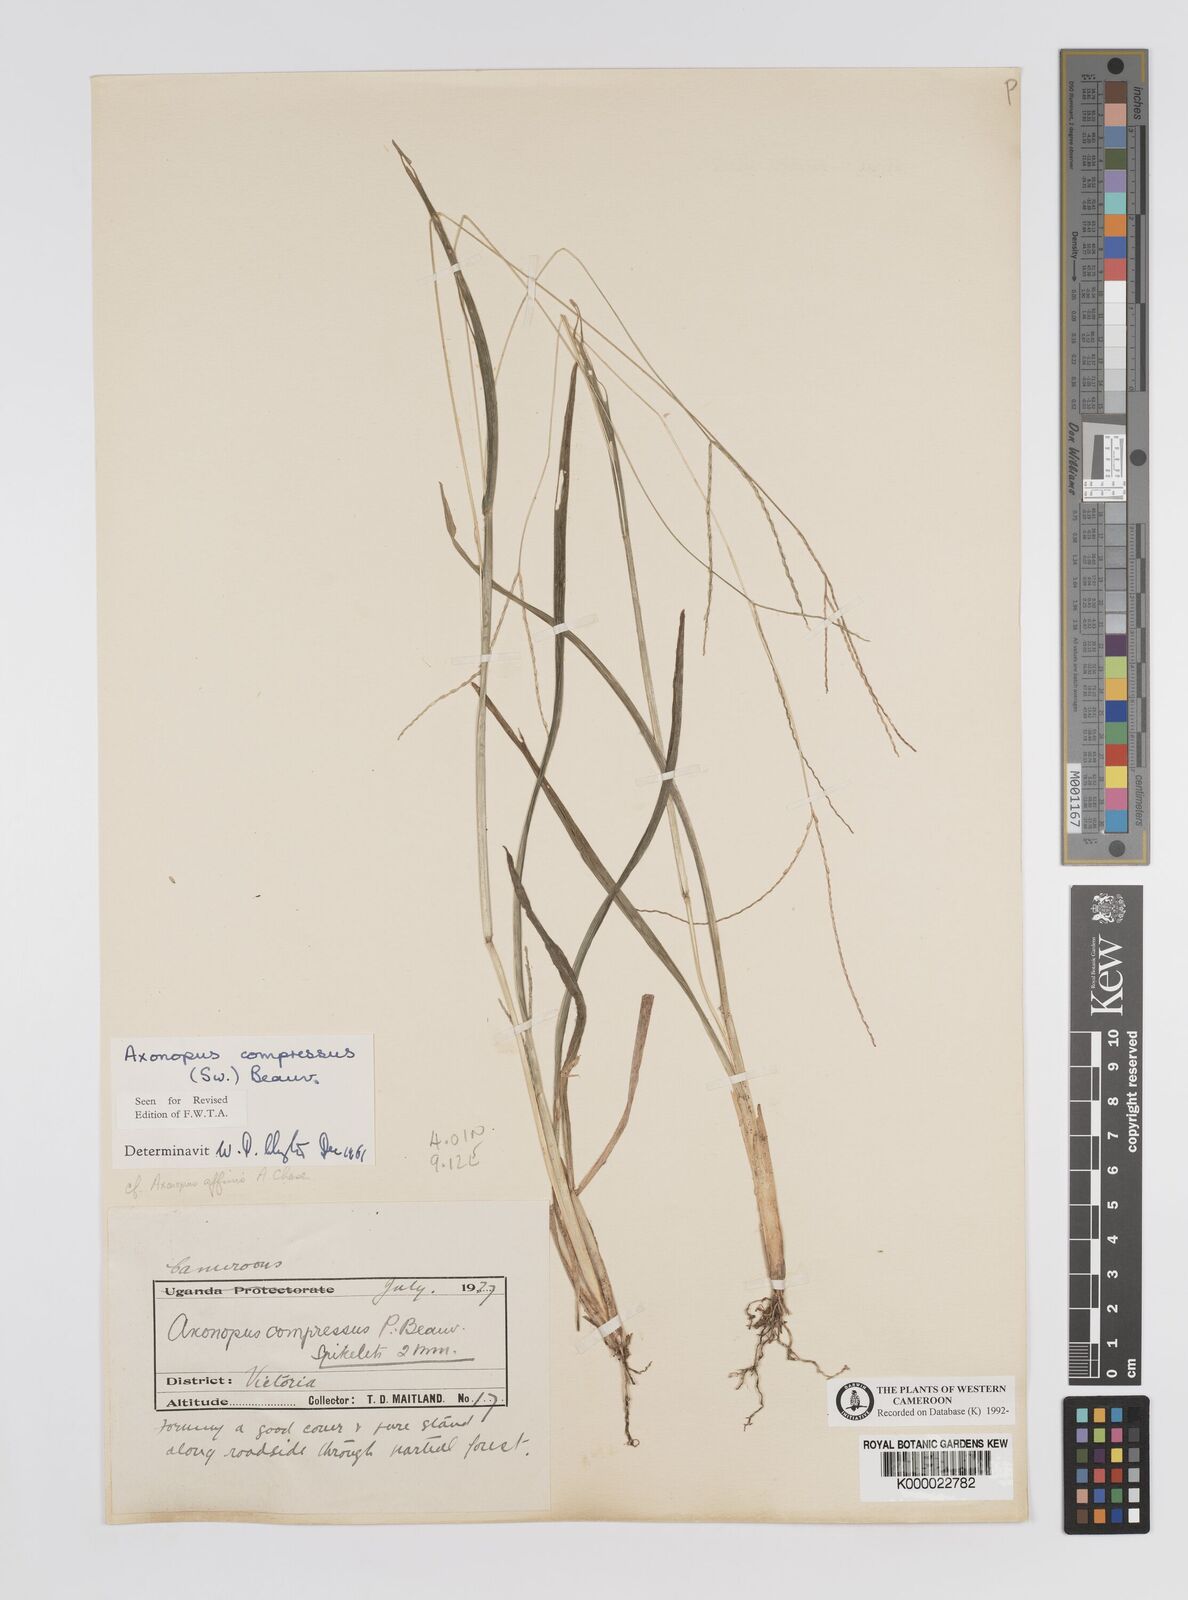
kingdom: Plantae
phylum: Tracheophyta
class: Liliopsida
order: Poales
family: Poaceae
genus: Axonopus
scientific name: Axonopus compressus
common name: American carpet grass
